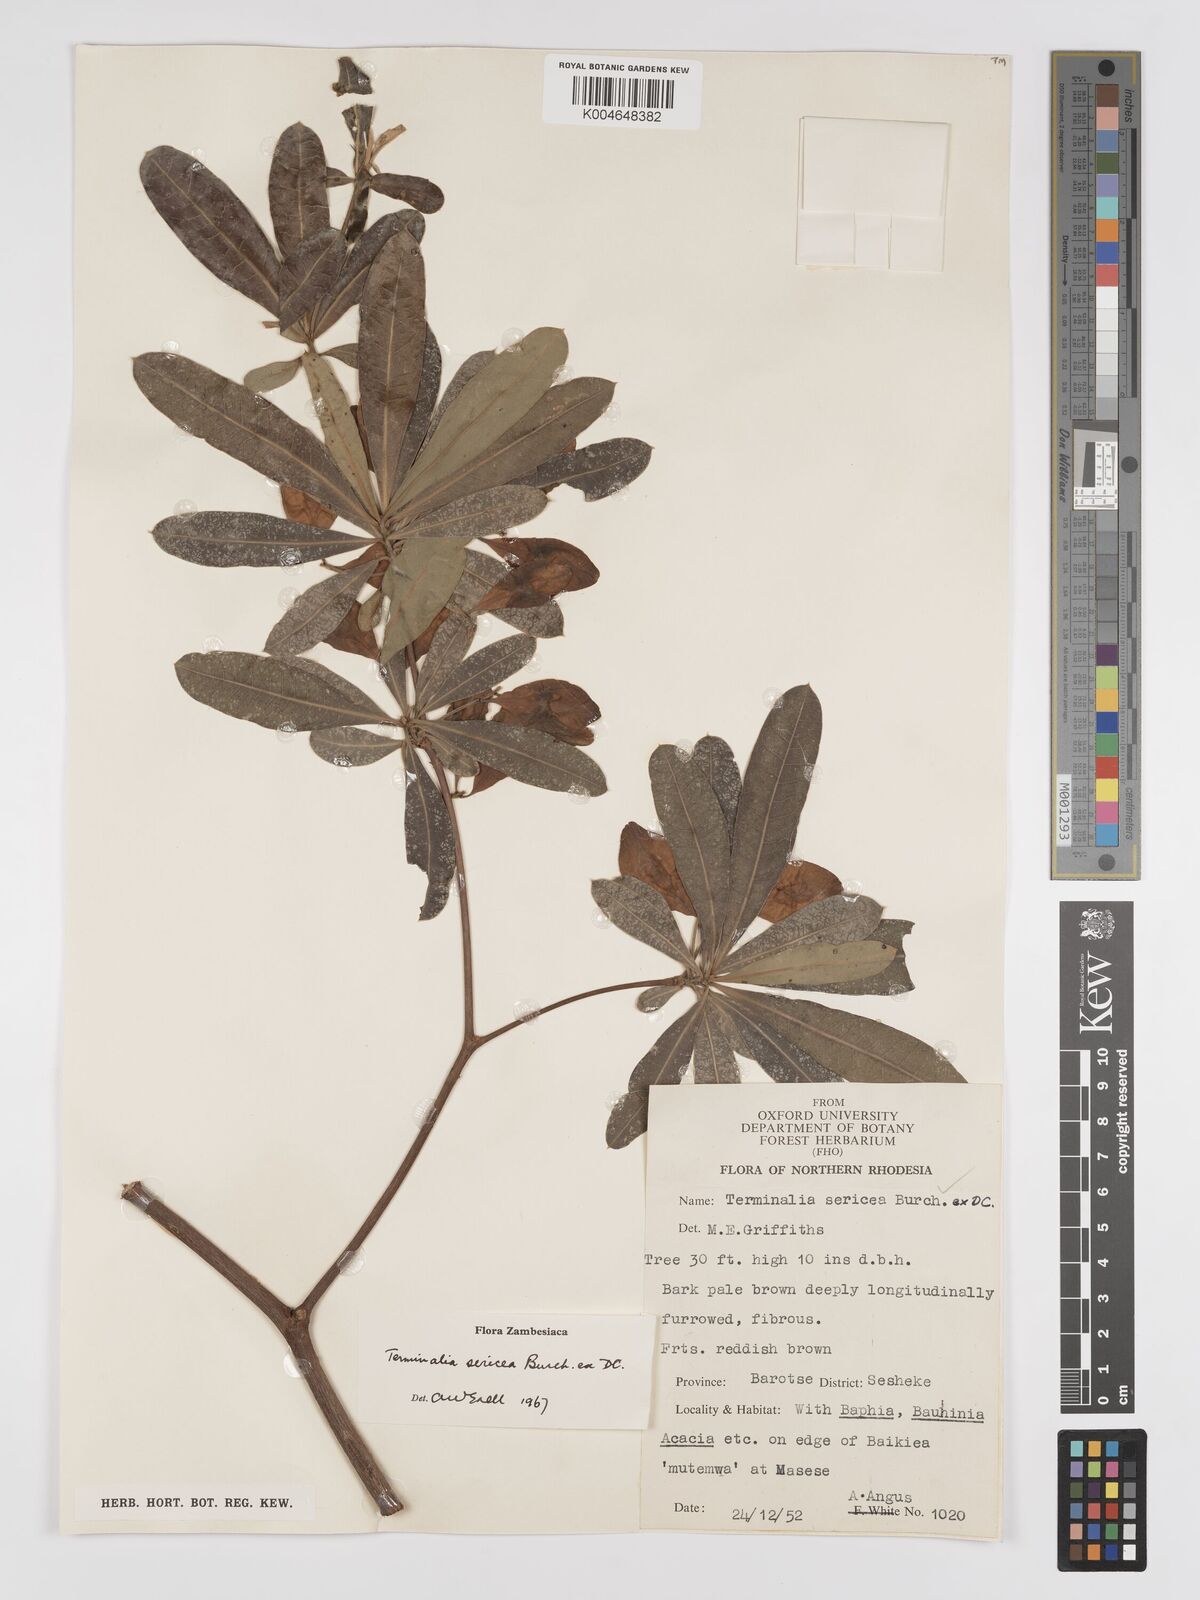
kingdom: Plantae
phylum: Tracheophyta
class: Magnoliopsida
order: Myrtales
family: Combretaceae
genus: Terminalia
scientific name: Terminalia
